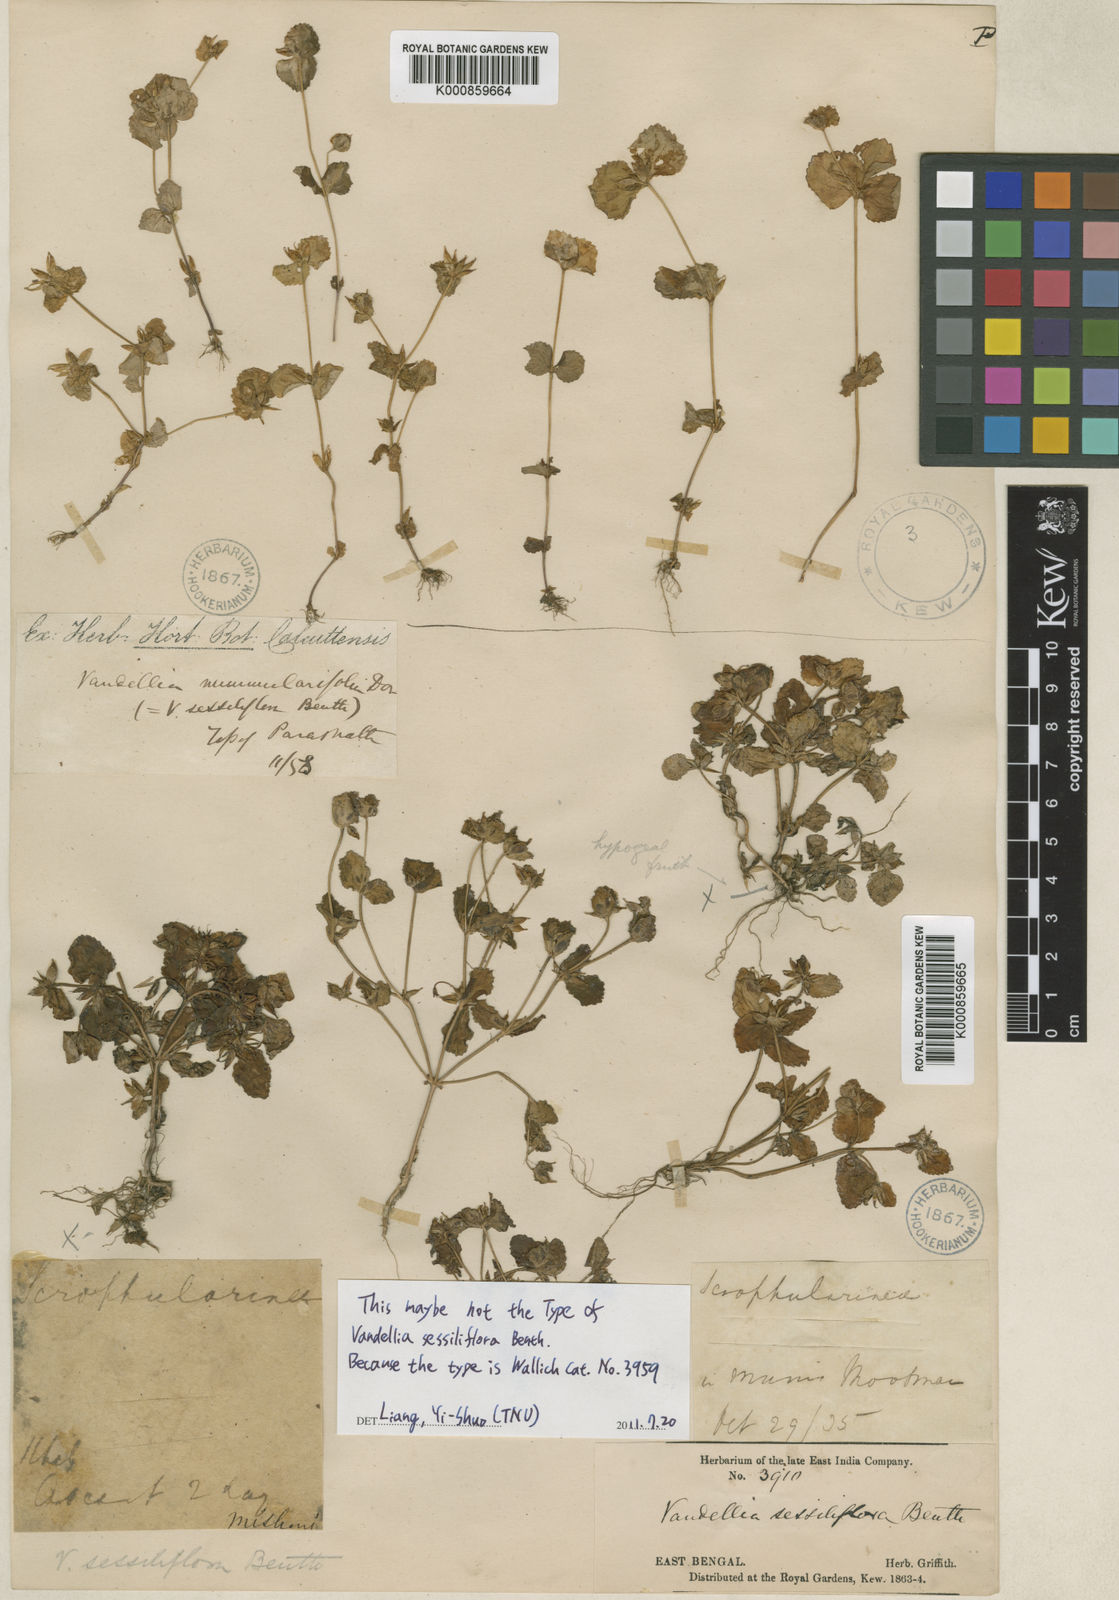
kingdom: Plantae
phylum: Tracheophyta
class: Magnoliopsida
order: Lamiales
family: Linderniaceae
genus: Craterostigma
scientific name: Craterostigma sessiliflorum
